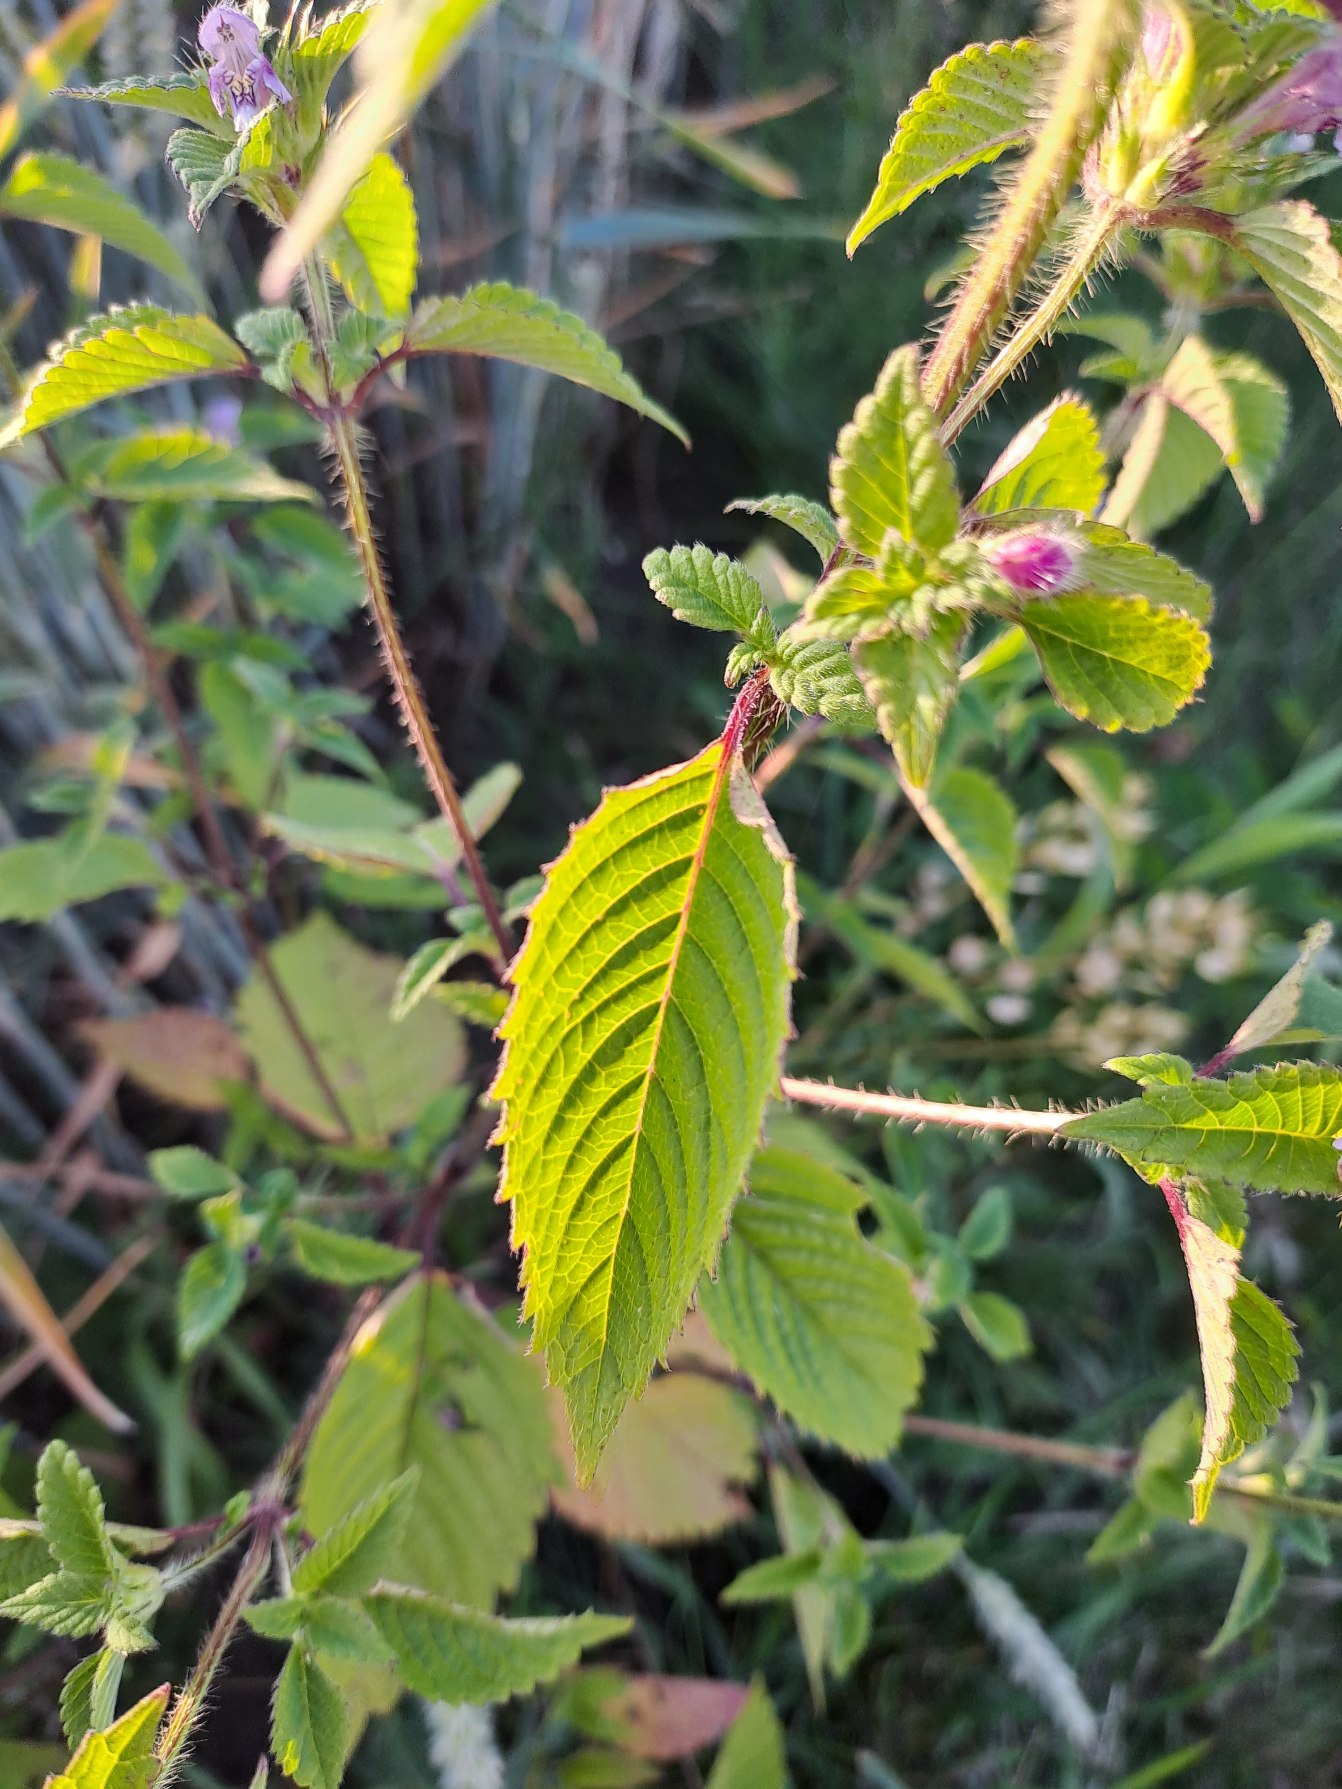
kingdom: Plantae
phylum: Tracheophyta
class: Magnoliopsida
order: Lamiales
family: Lamiaceae
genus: Galeopsis
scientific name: Galeopsis tetrahit
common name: Almindelig hanekro
